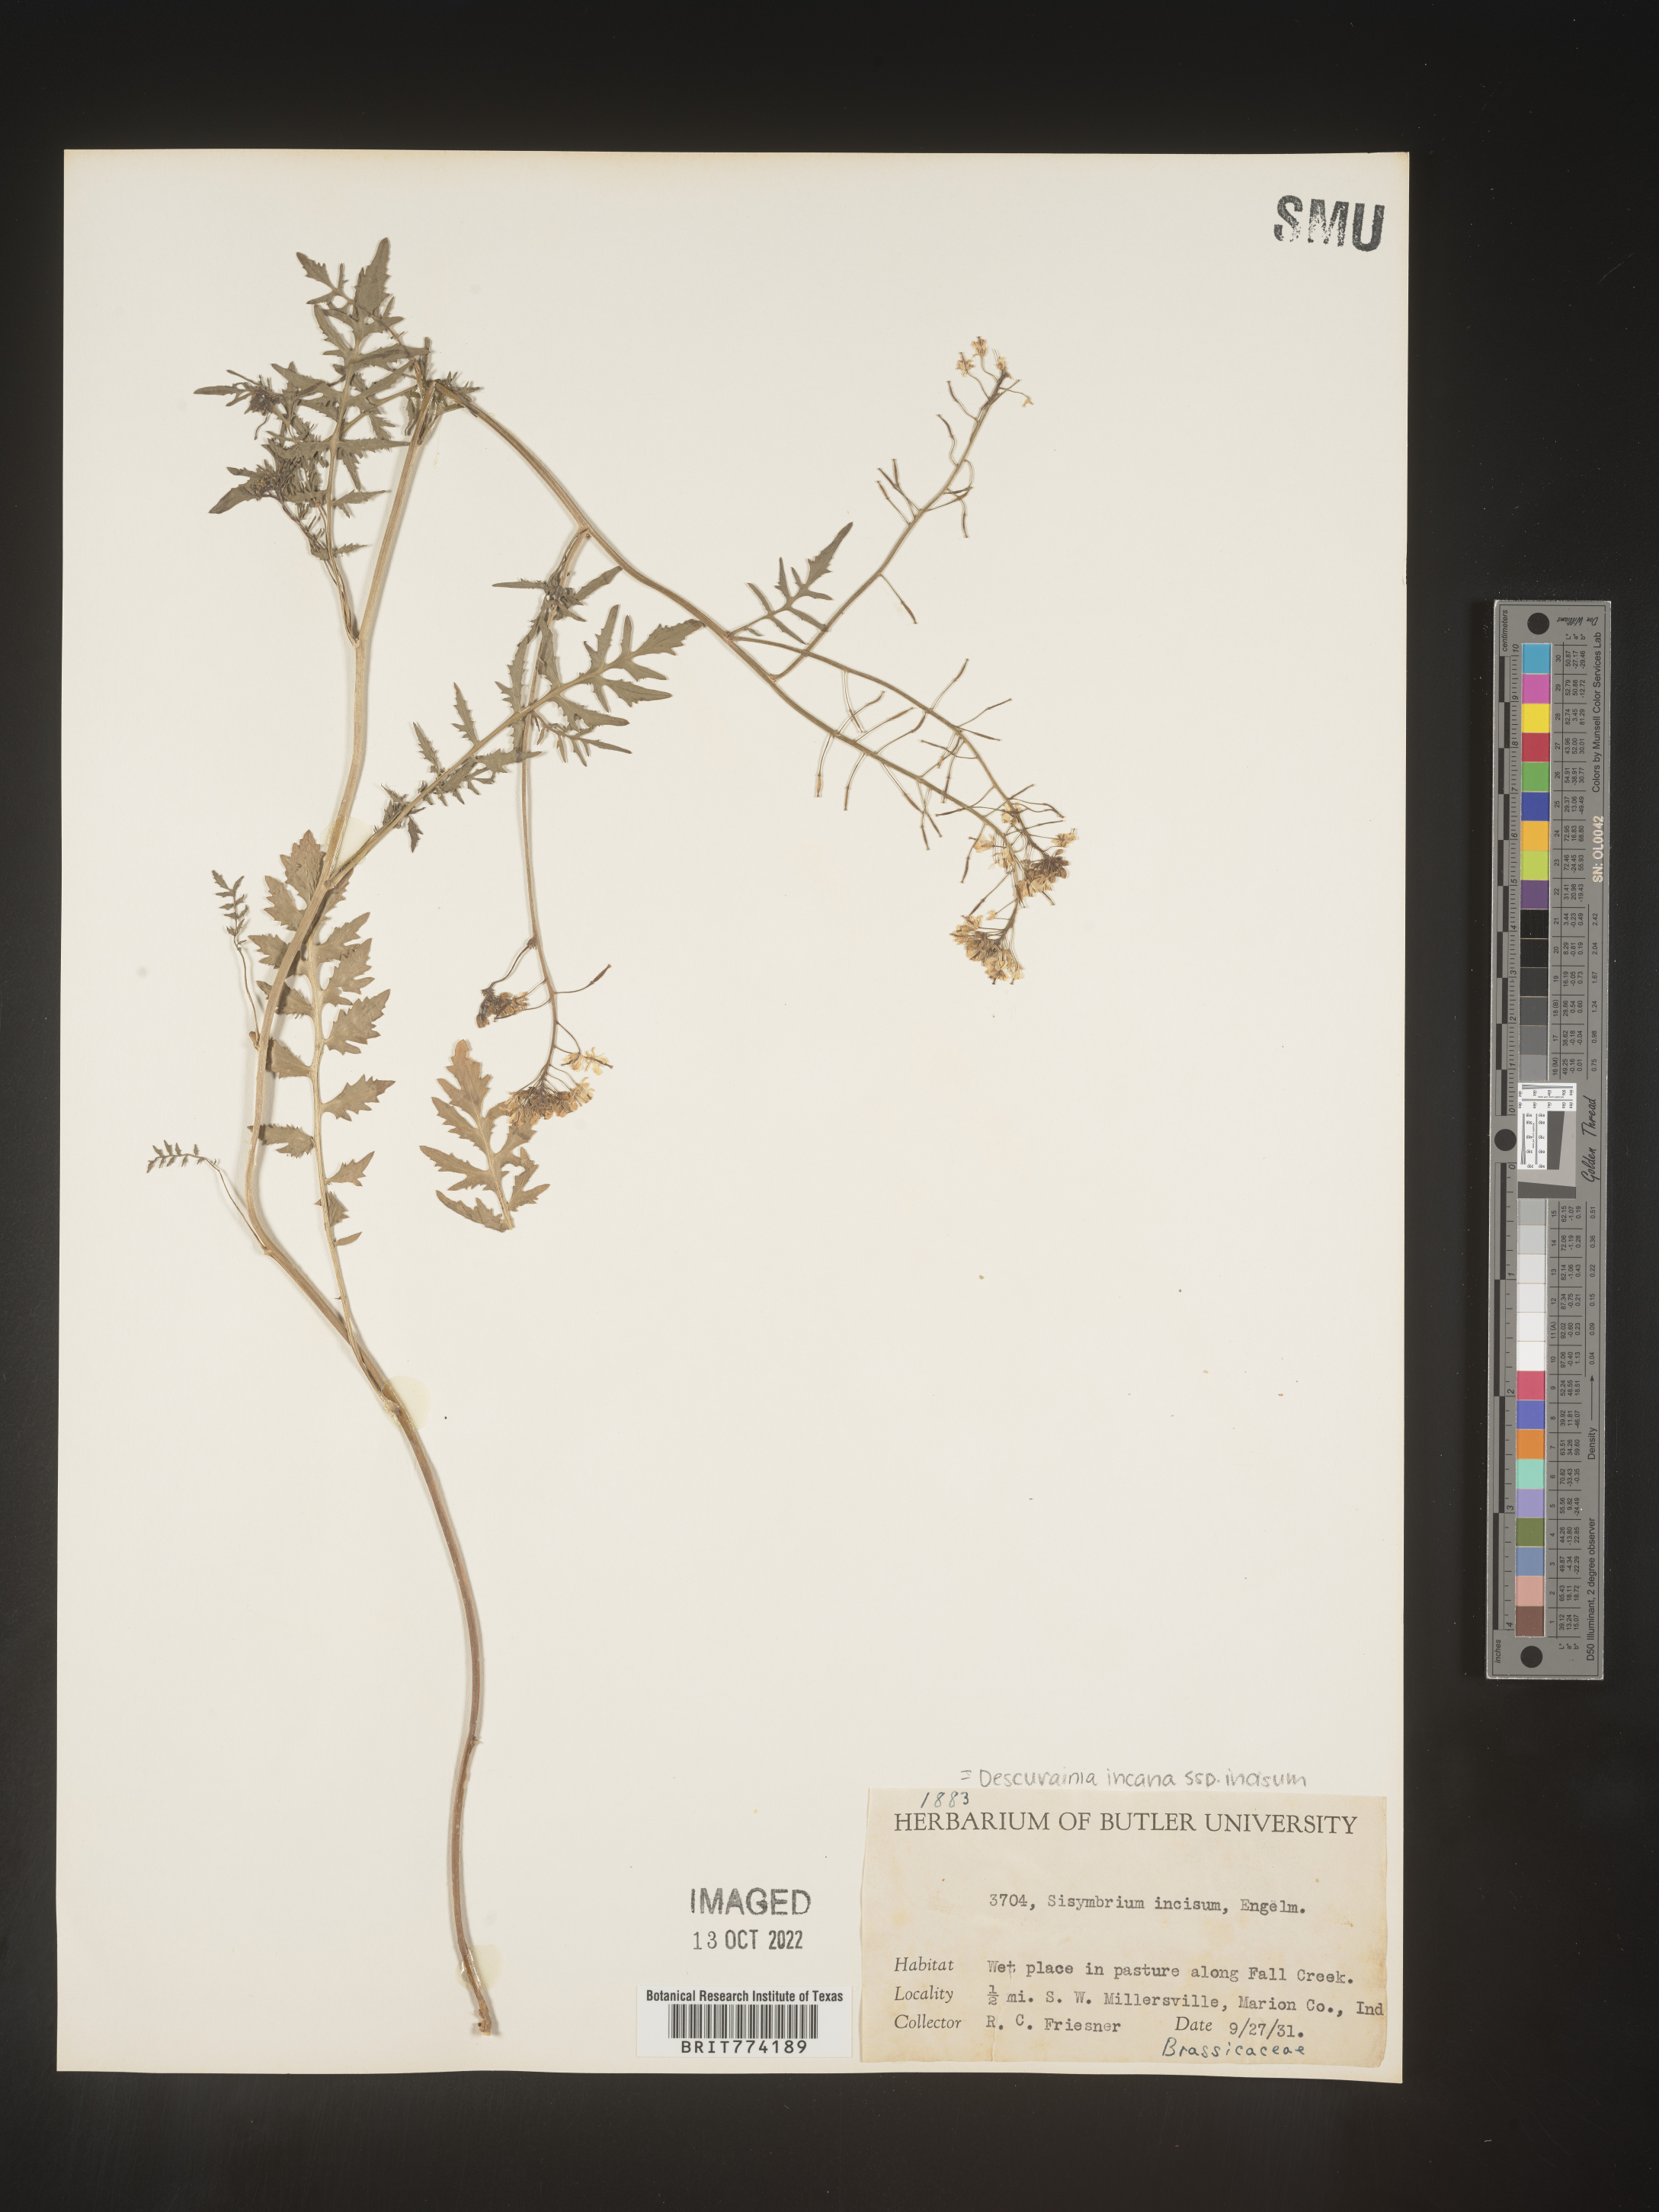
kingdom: Plantae
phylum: Tracheophyta
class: Magnoliopsida
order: Brassicales
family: Brassicaceae
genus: Descurainia
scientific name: Descurainia
